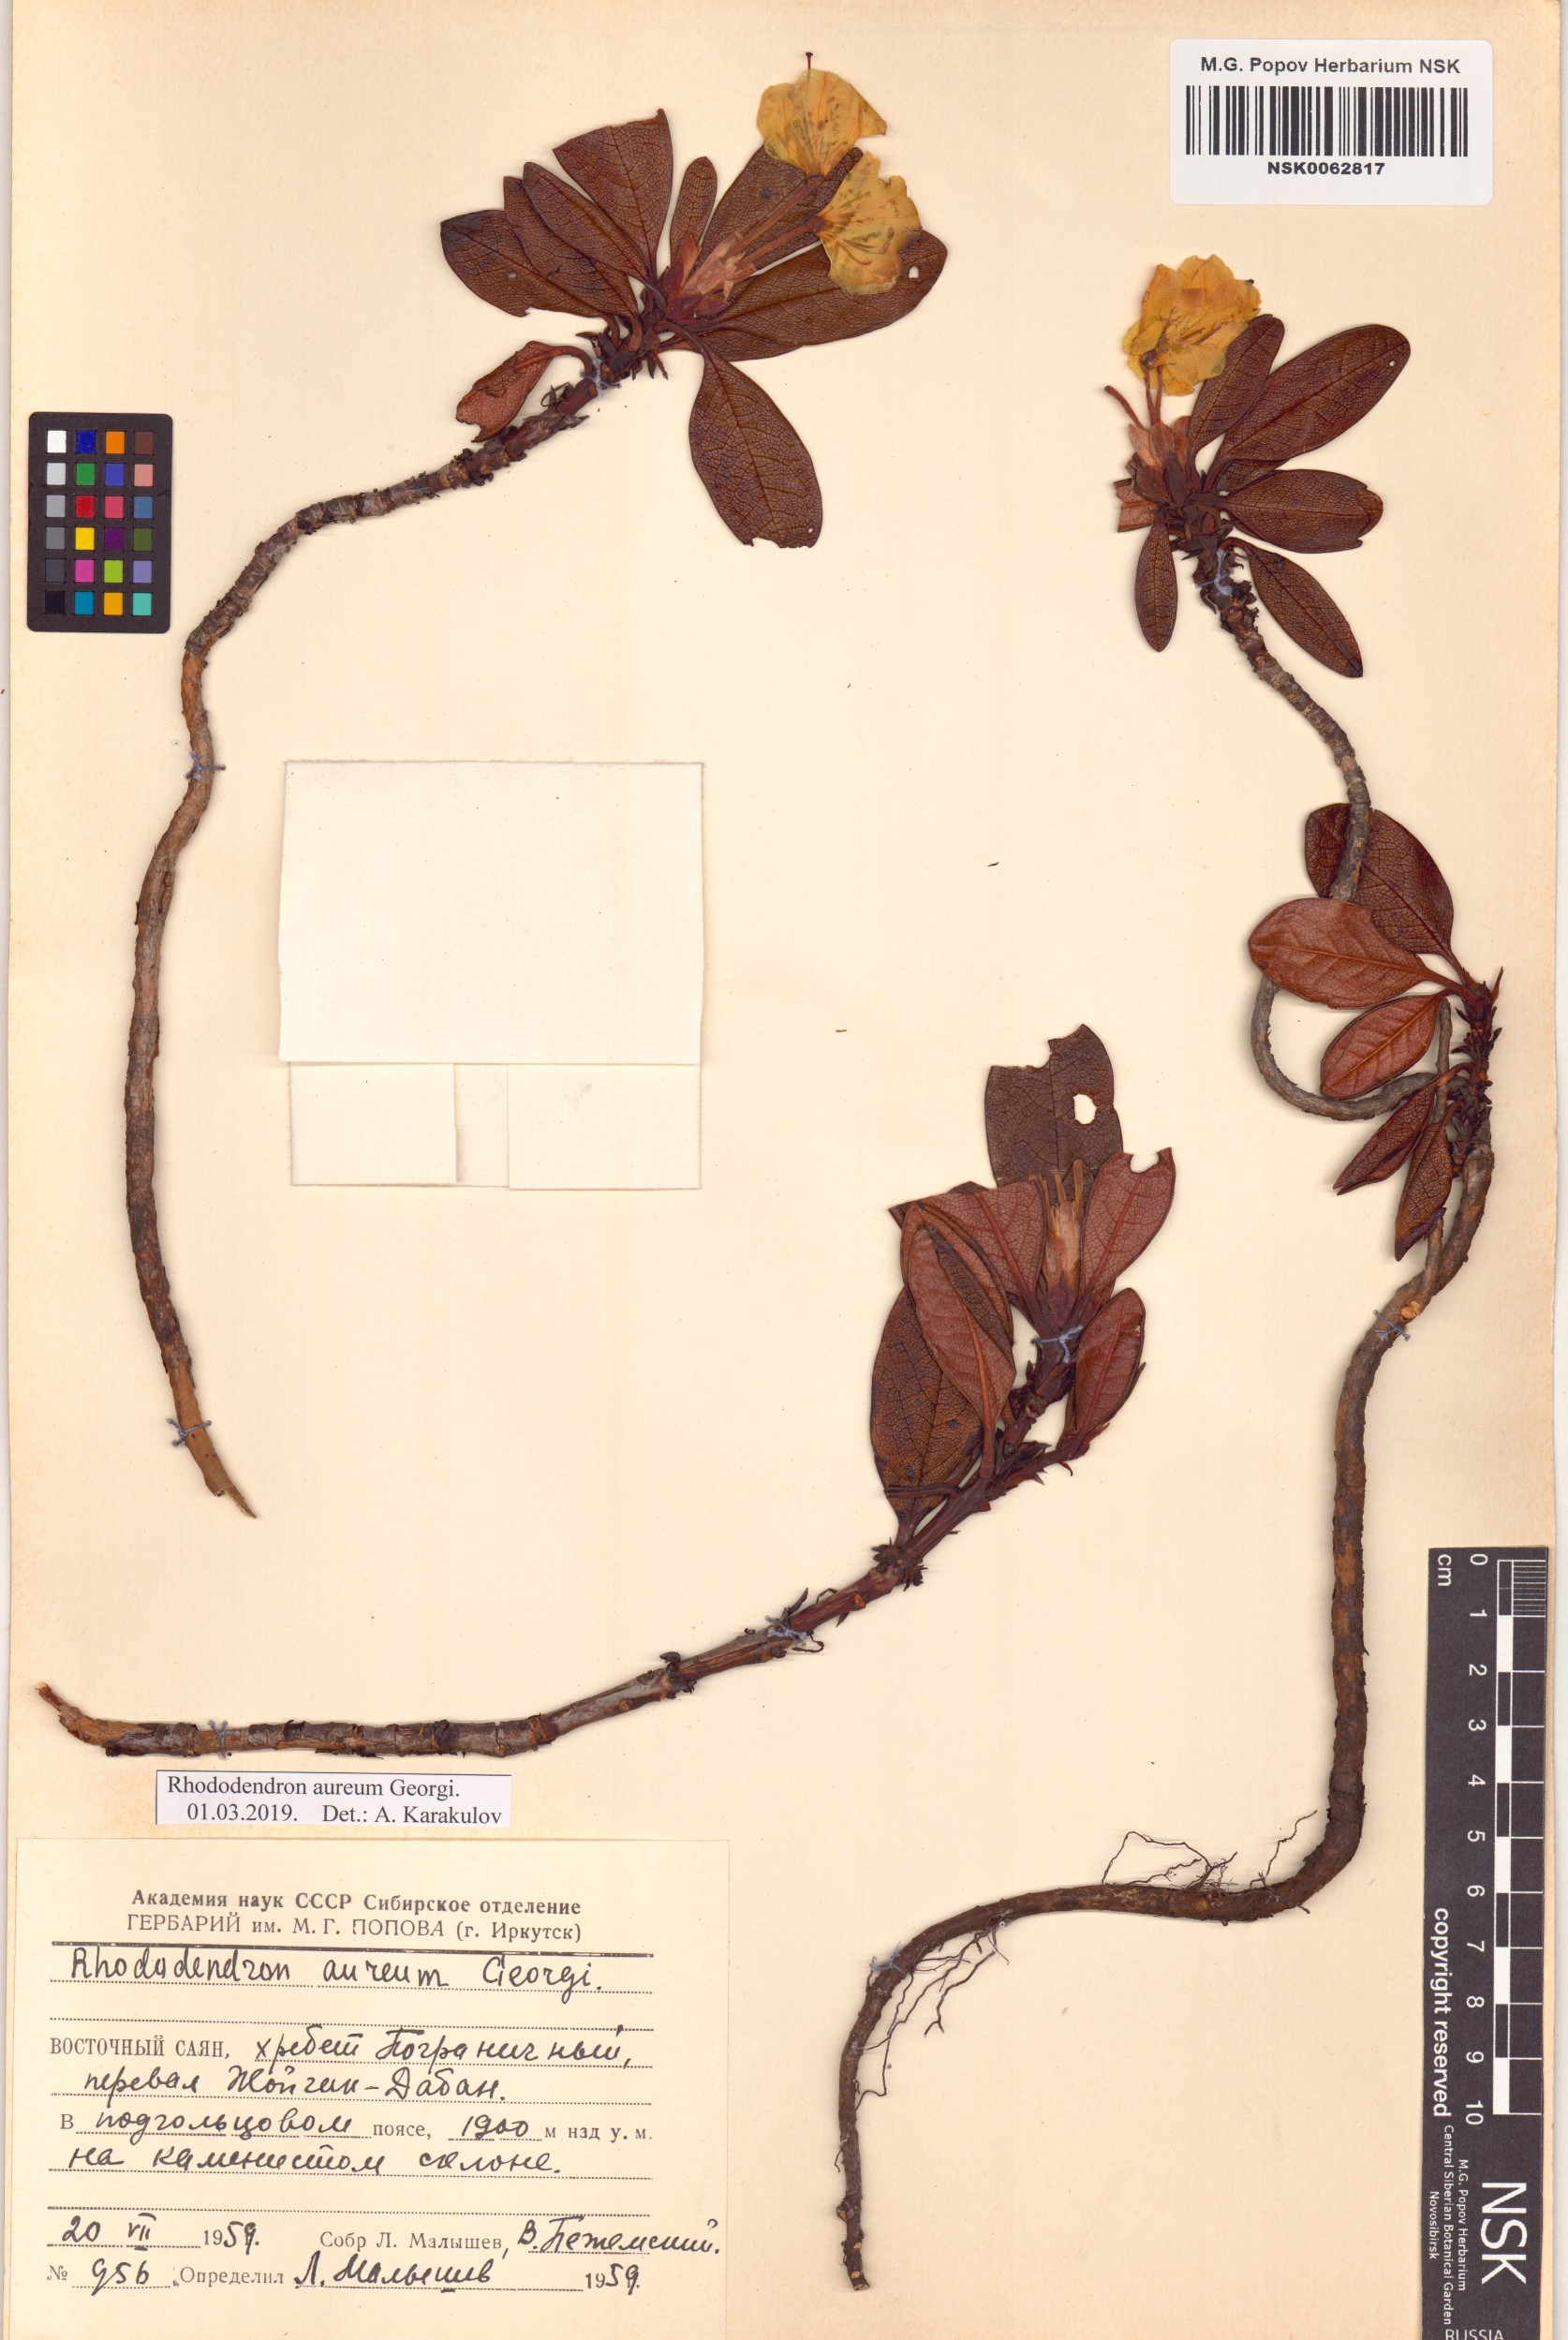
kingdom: Plantae
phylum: Tracheophyta
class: Magnoliopsida
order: Ericales
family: Ericaceae
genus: Rhododendron
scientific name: Rhododendron aureum
